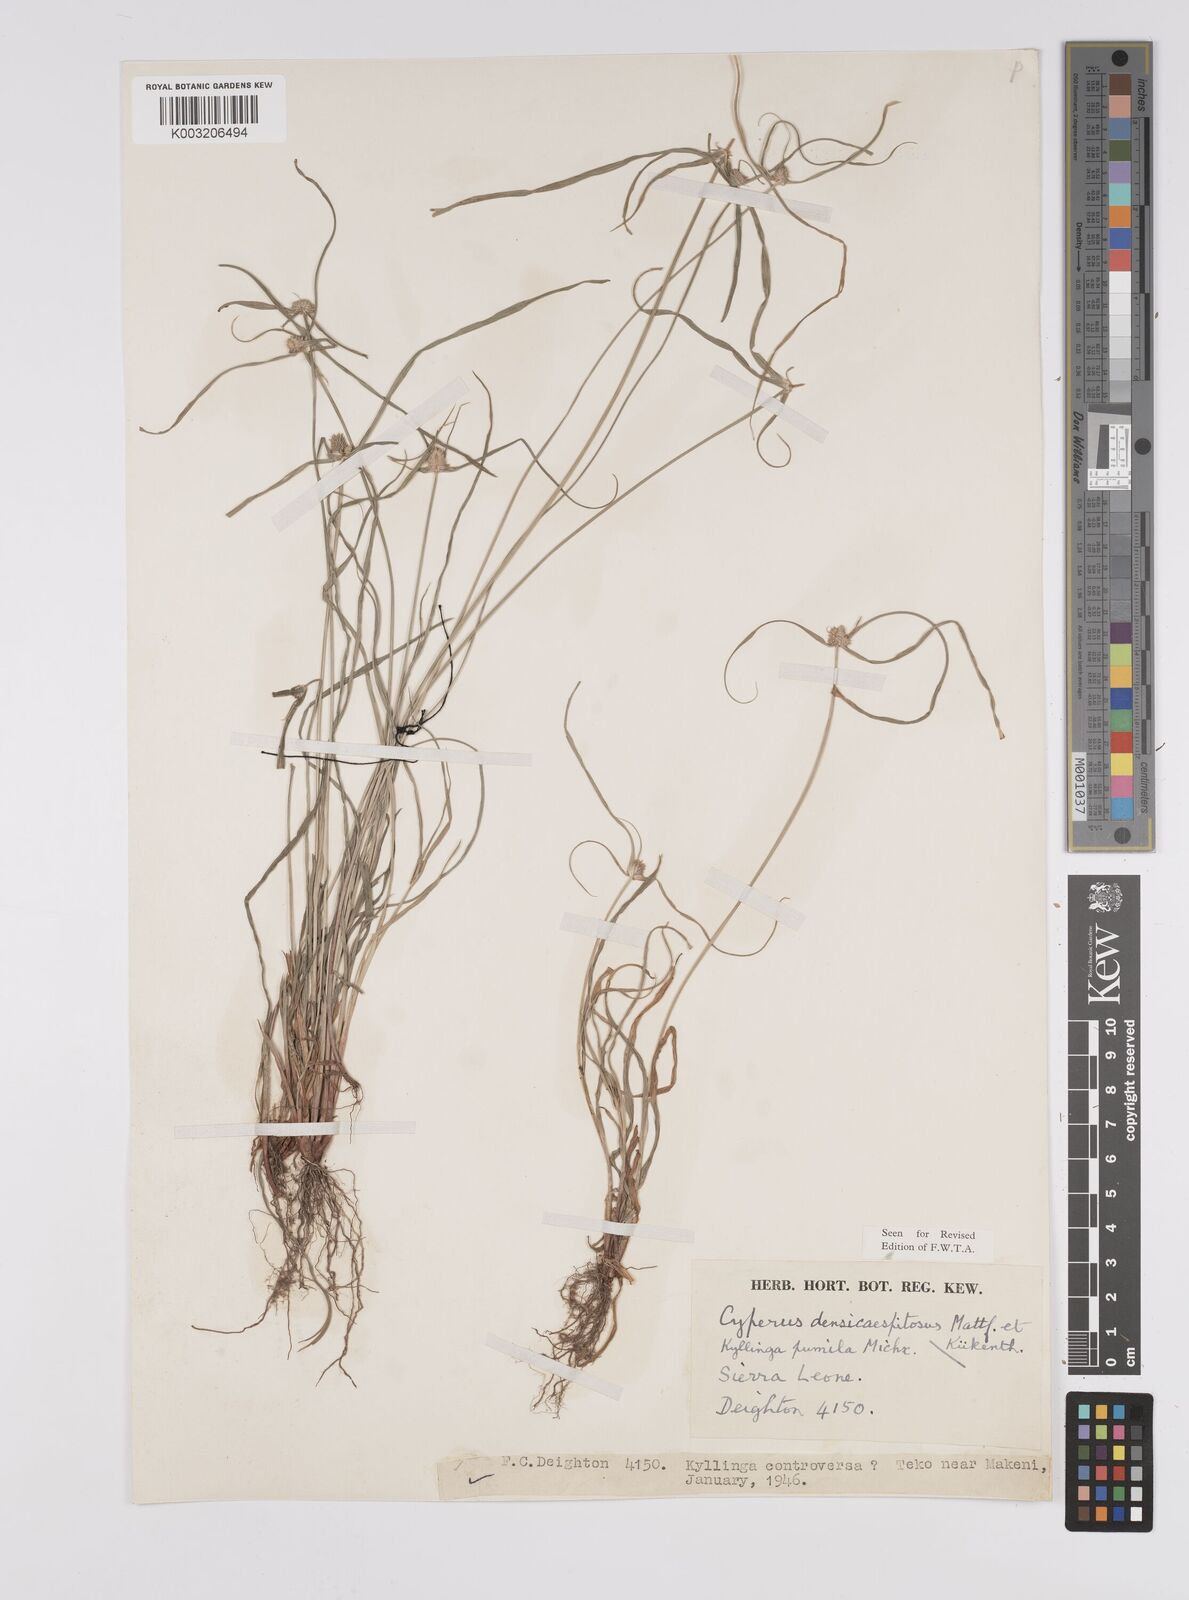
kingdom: Plantae
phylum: Tracheophyta
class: Liliopsida
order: Poales
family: Cyperaceae
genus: Cyperus
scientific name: Cyperus
